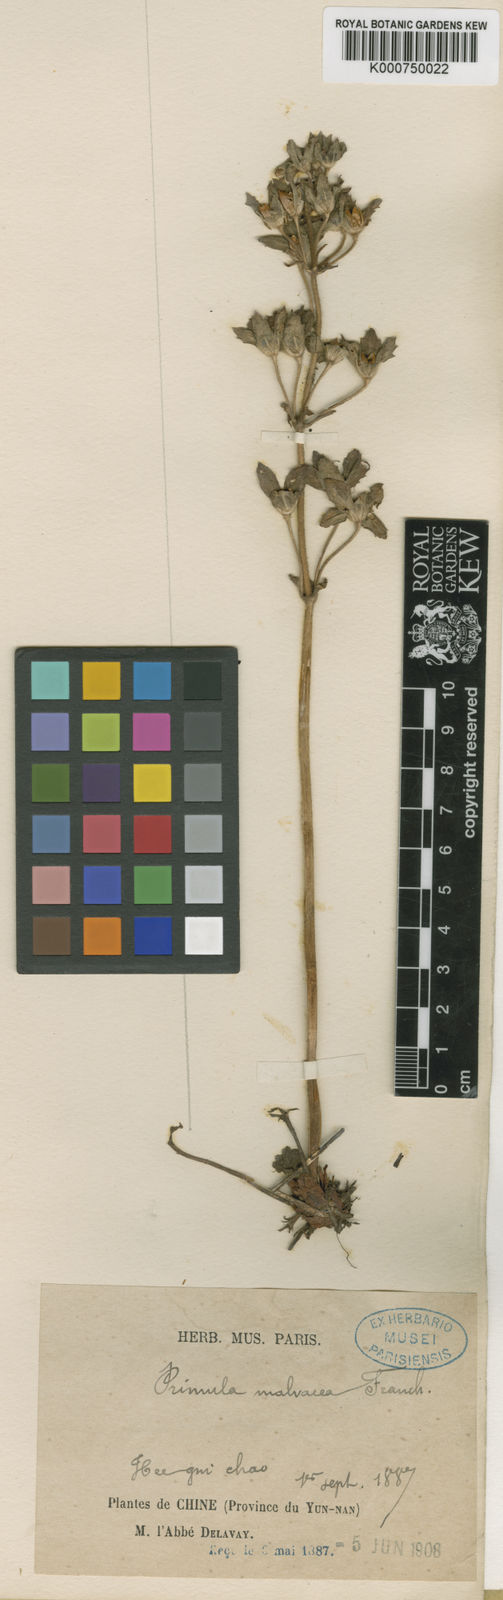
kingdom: Plantae
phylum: Tracheophyta
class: Magnoliopsida
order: Ericales
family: Primulaceae
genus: Primula
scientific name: Primula malvacea
